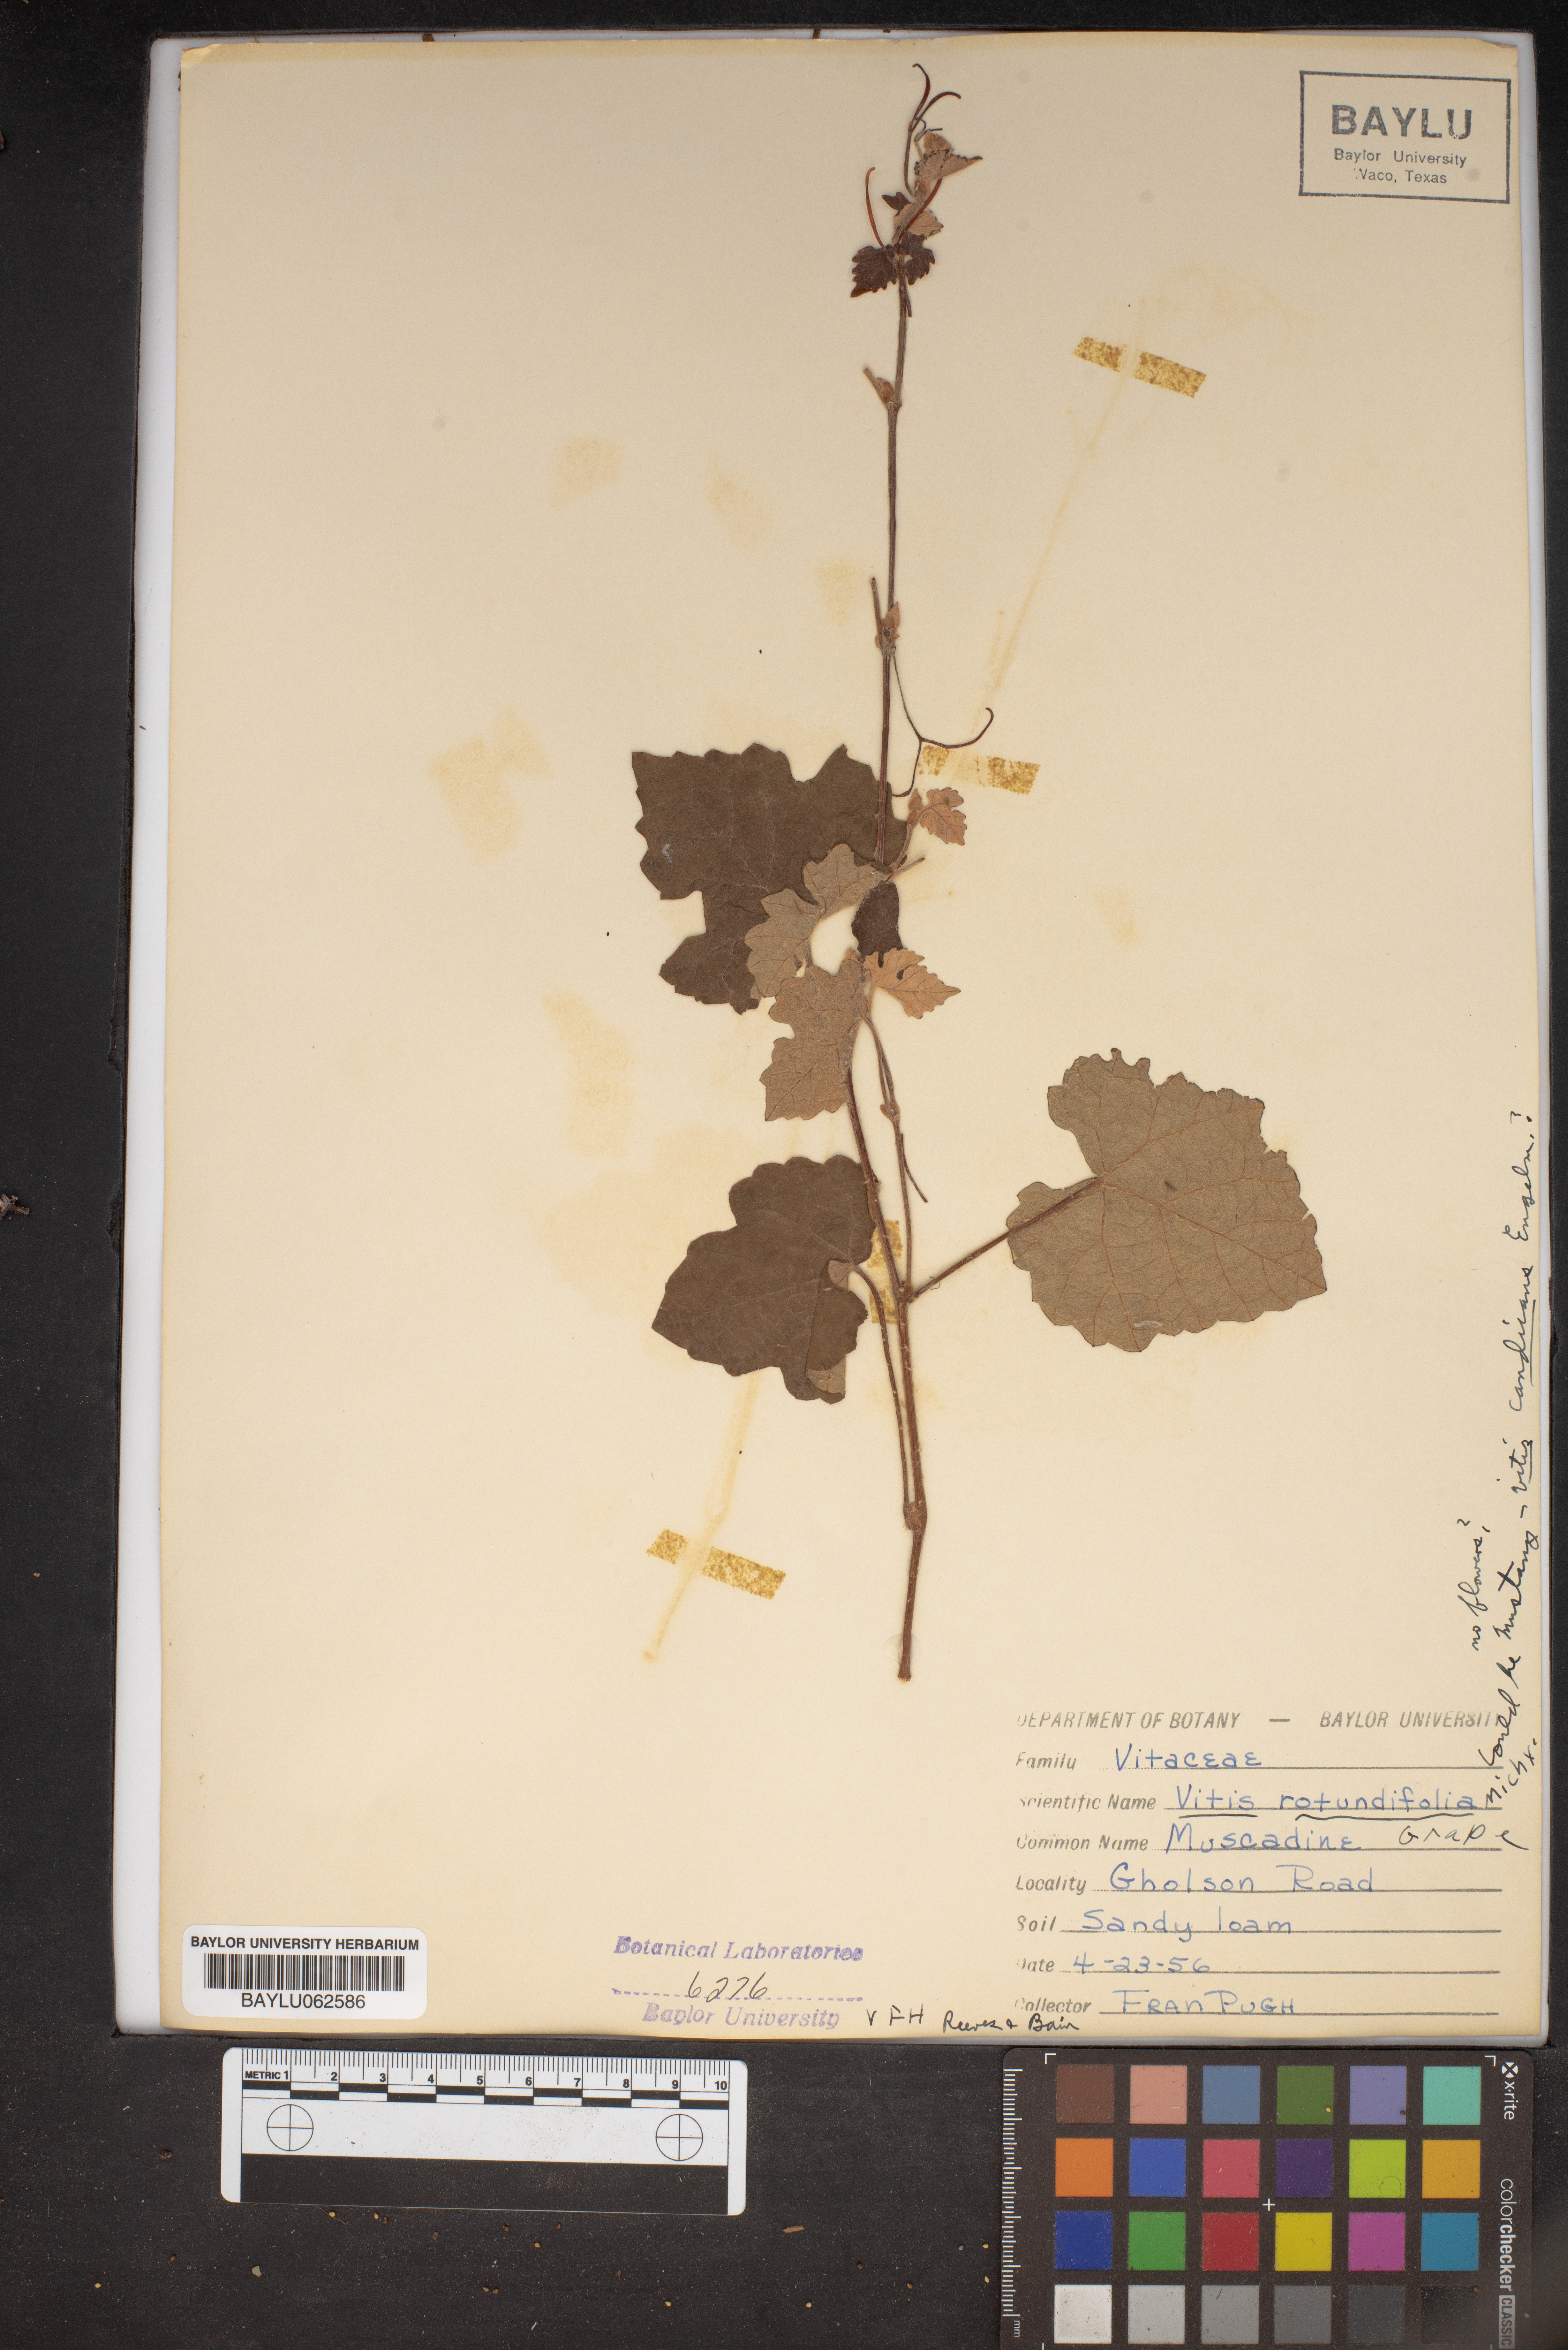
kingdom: Plantae
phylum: Tracheophyta
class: Magnoliopsida
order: Vitales
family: Vitaceae
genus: Vitis
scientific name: Vitis rotundifolia
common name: Muscadine grape
